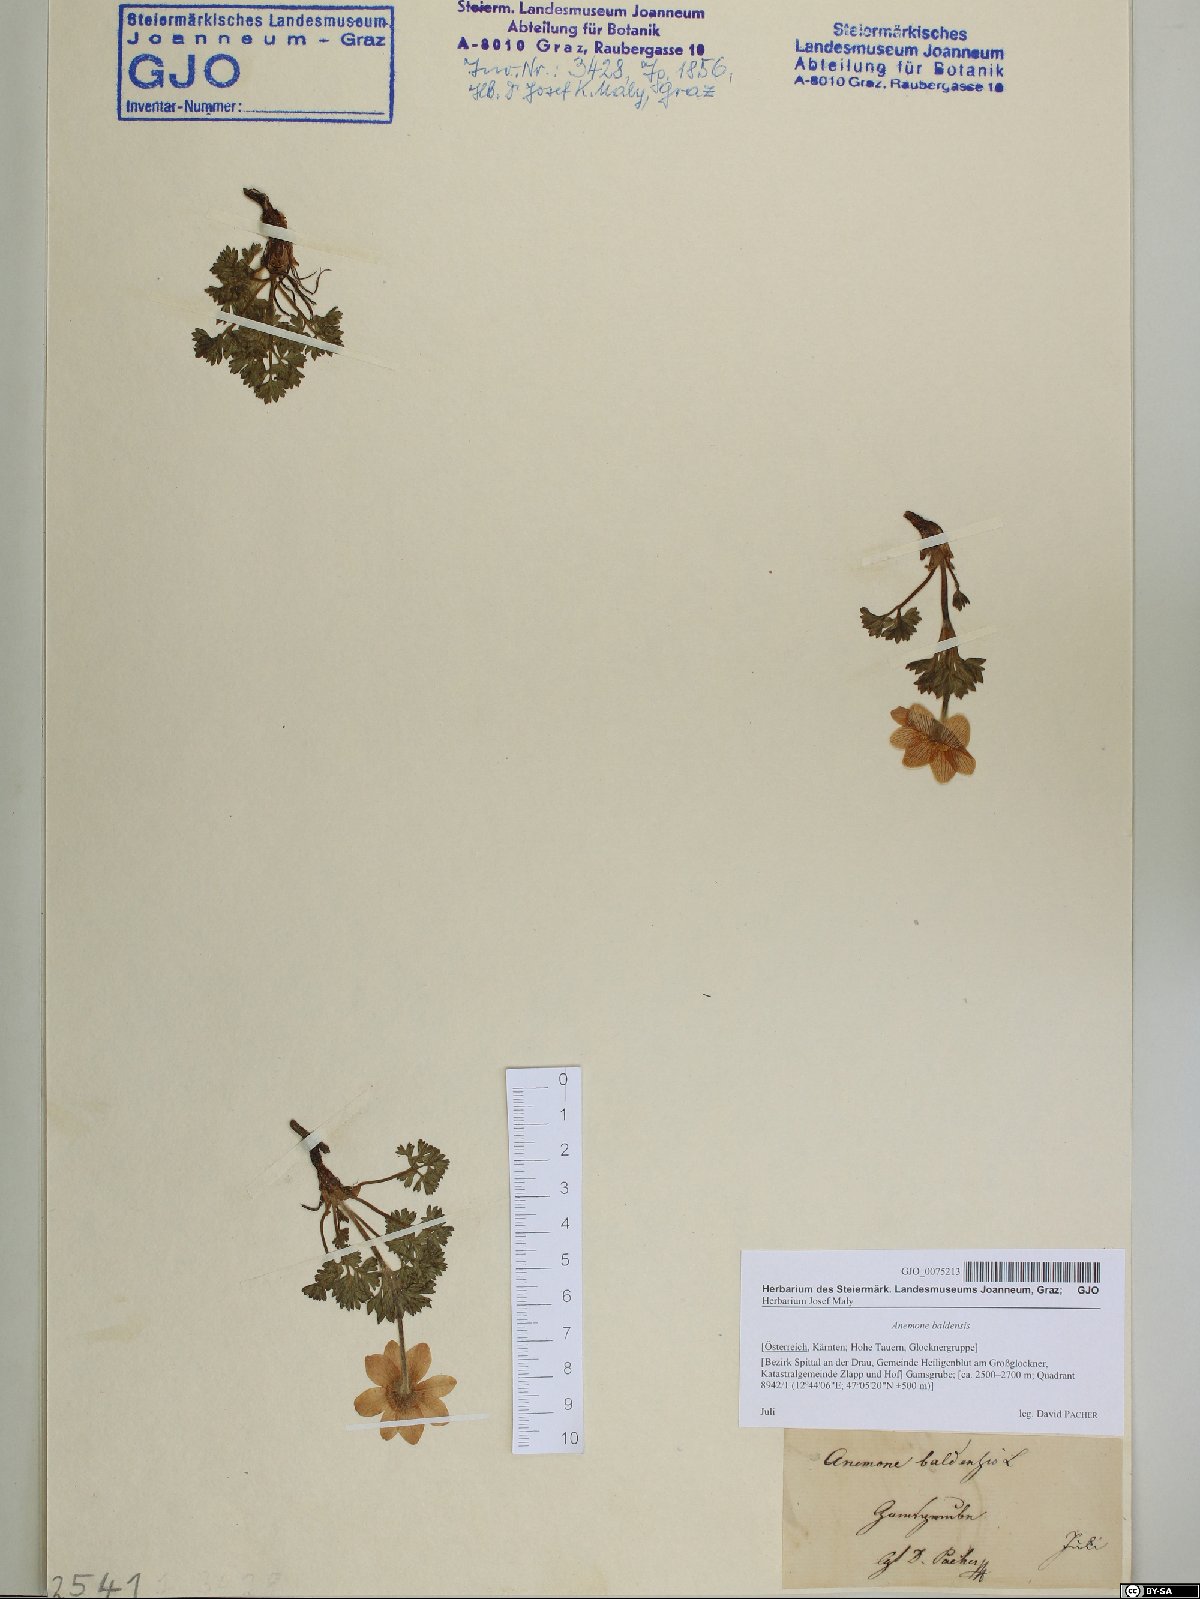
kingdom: Plantae
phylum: Tracheophyta
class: Magnoliopsida
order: Ranunculales
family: Ranunculaceae
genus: Anemone
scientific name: Anemone baldensis
